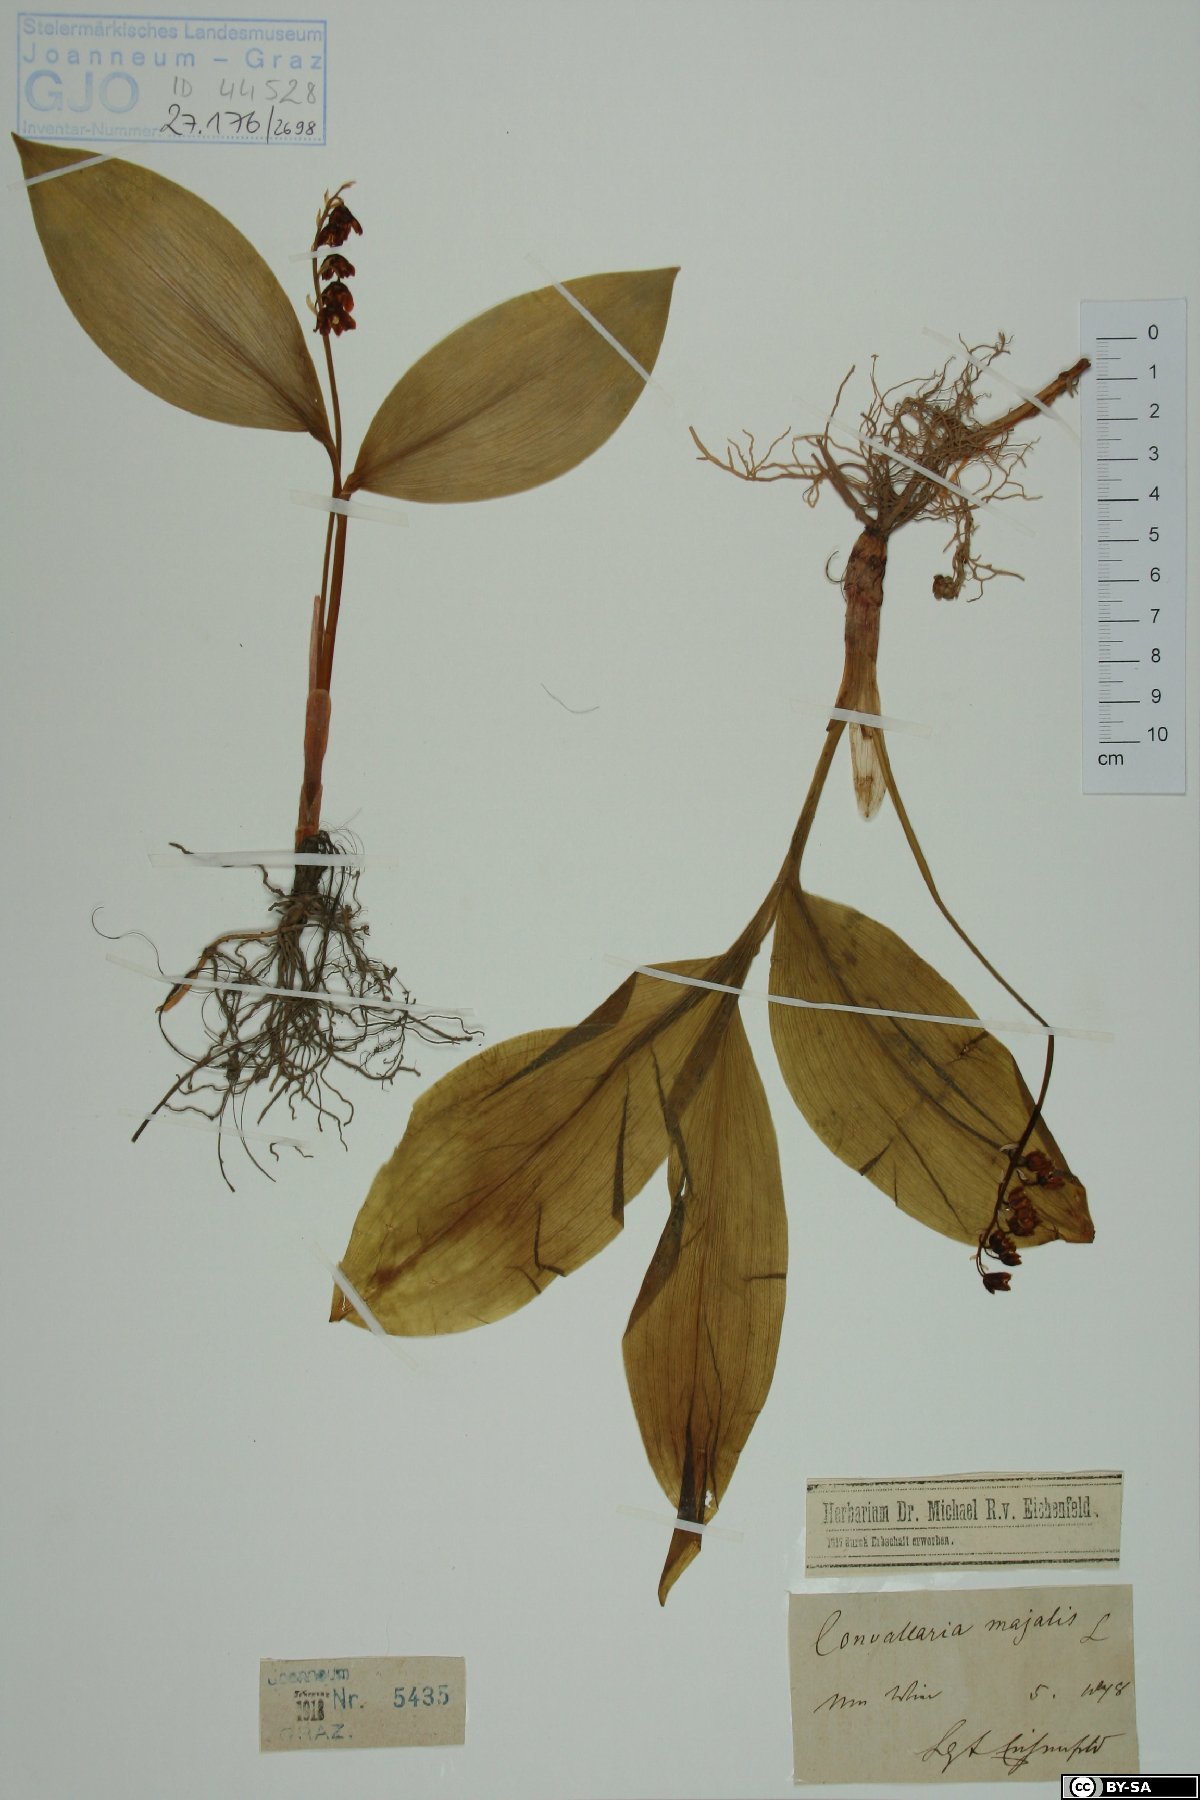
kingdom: Plantae
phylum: Tracheophyta
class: Liliopsida
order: Asparagales
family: Asparagaceae
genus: Convallaria
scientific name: Convallaria majalis
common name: Lily-of-the-valley
